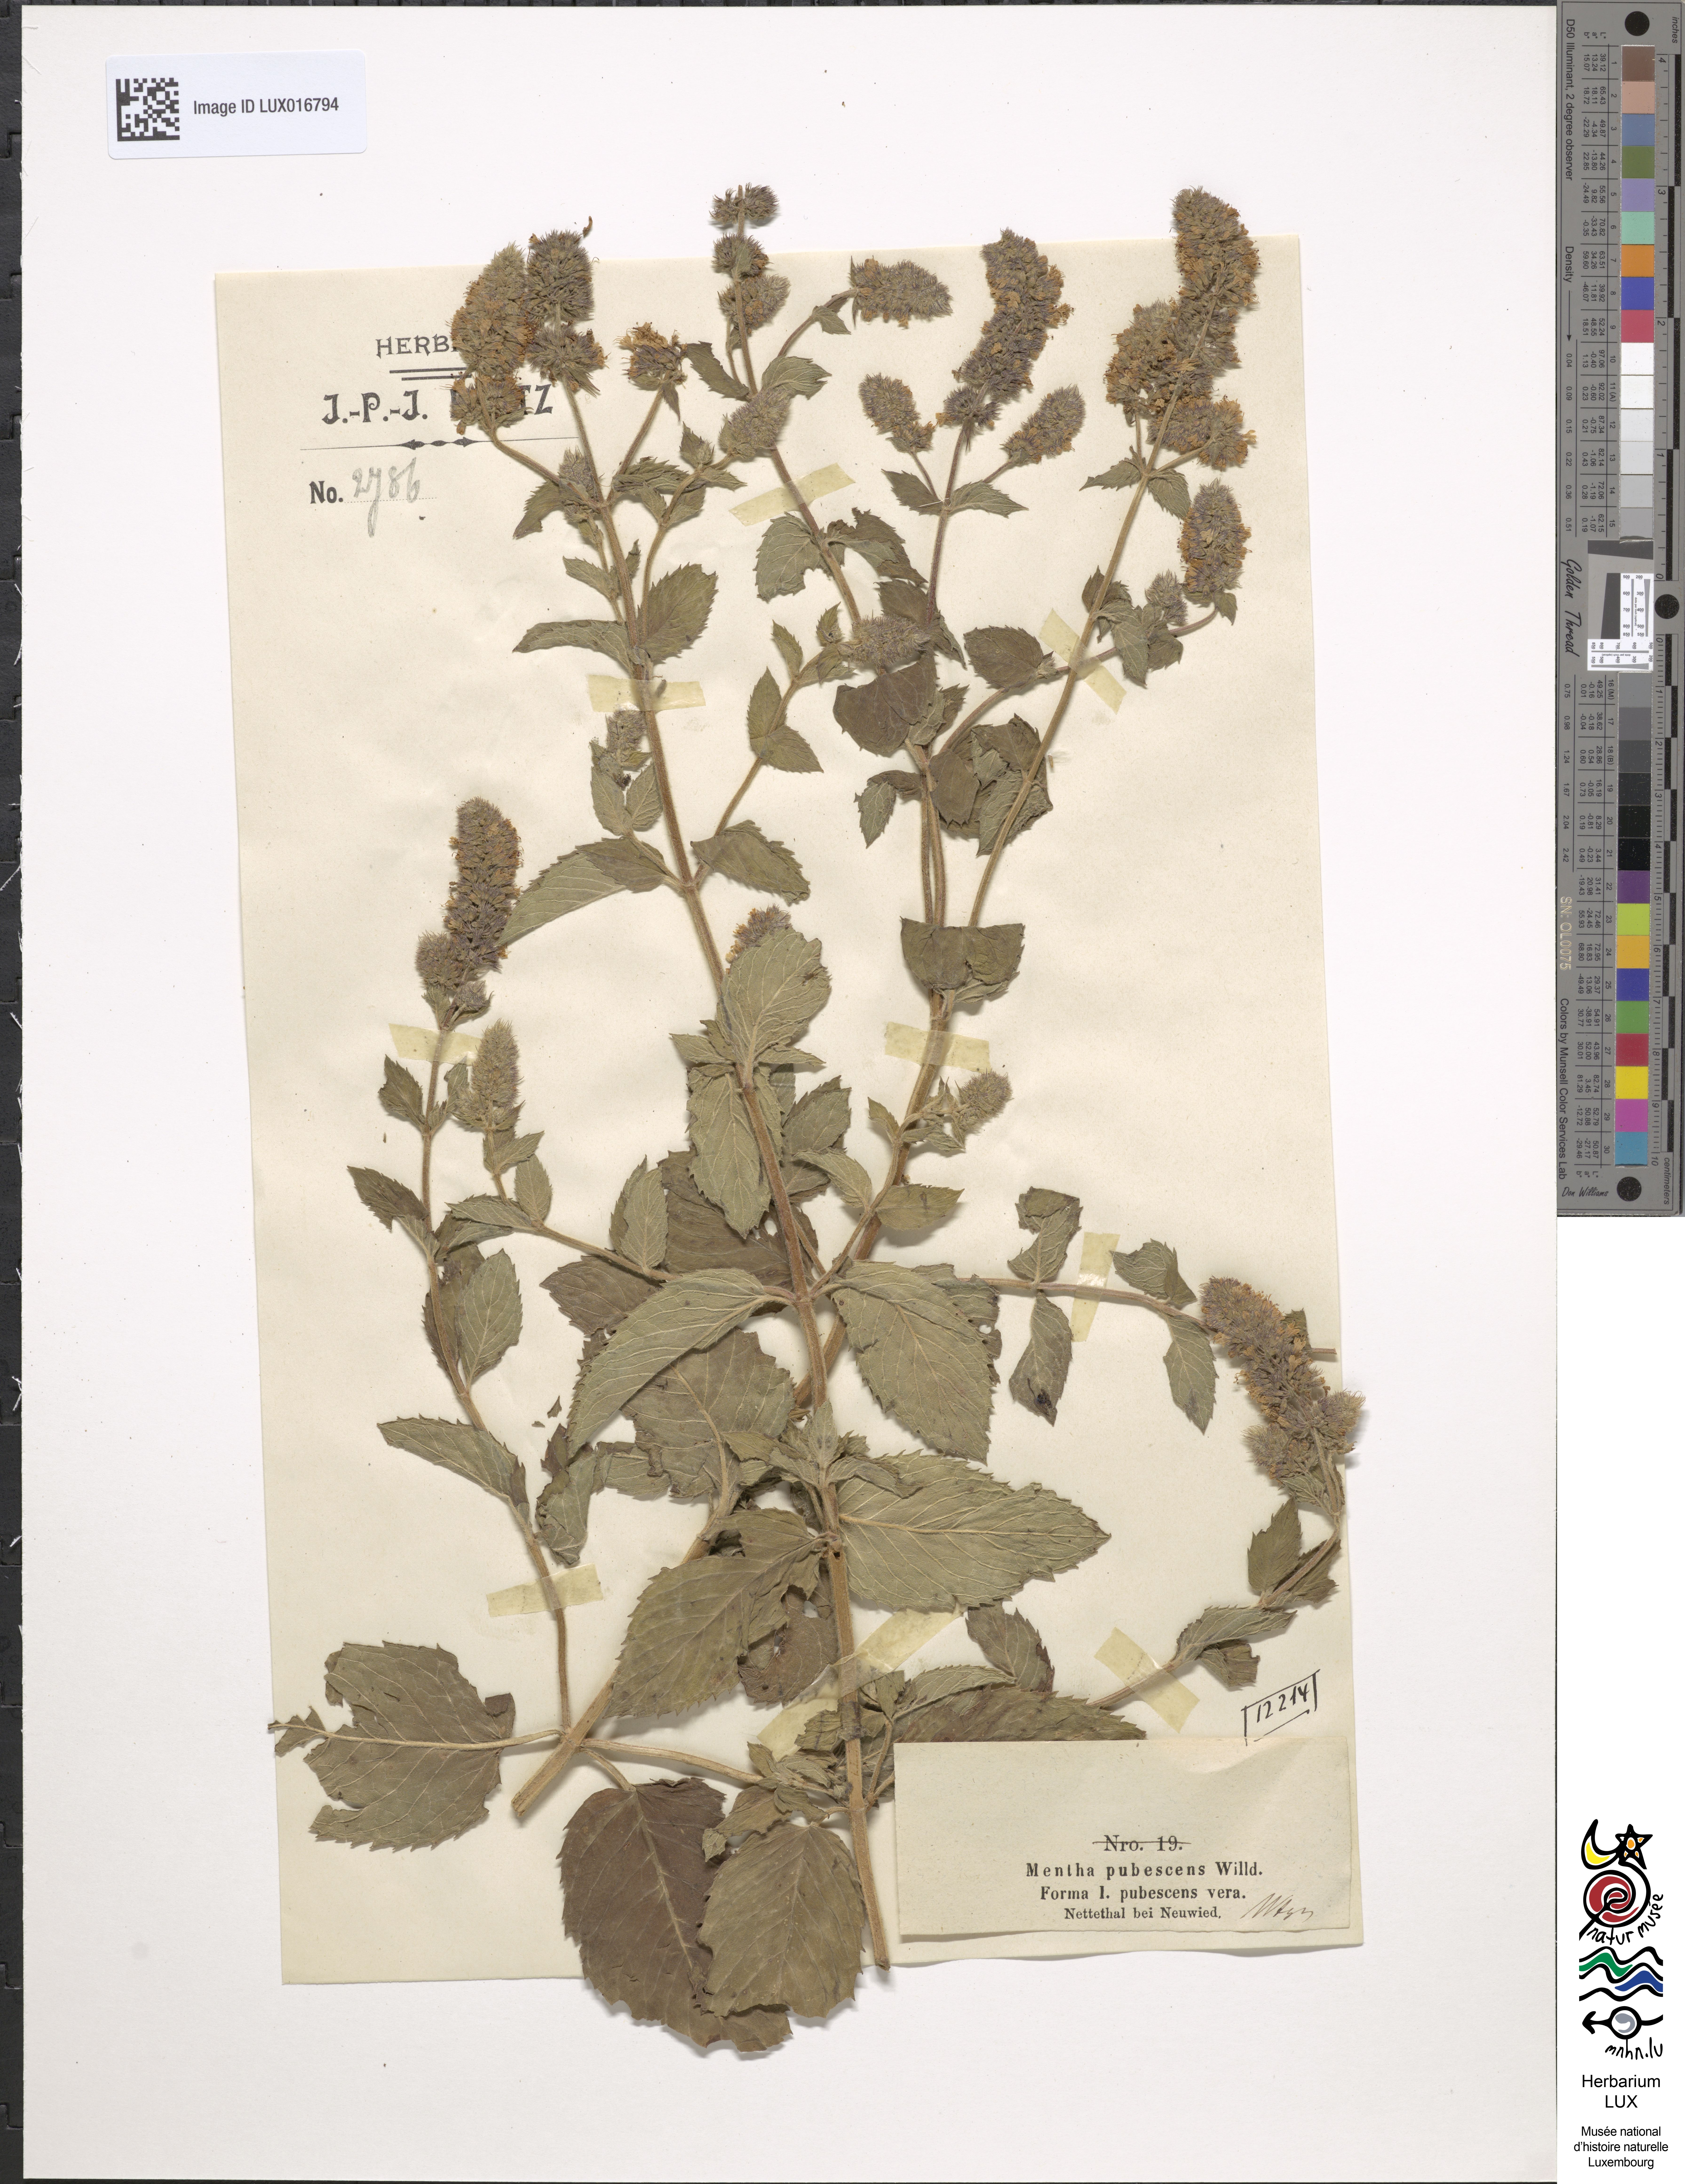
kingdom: Plantae
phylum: Tracheophyta
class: Magnoliopsida
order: Lamiales
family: Lamiaceae
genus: Mentha
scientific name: Mentha dumetorum
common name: Bush-loving mint
